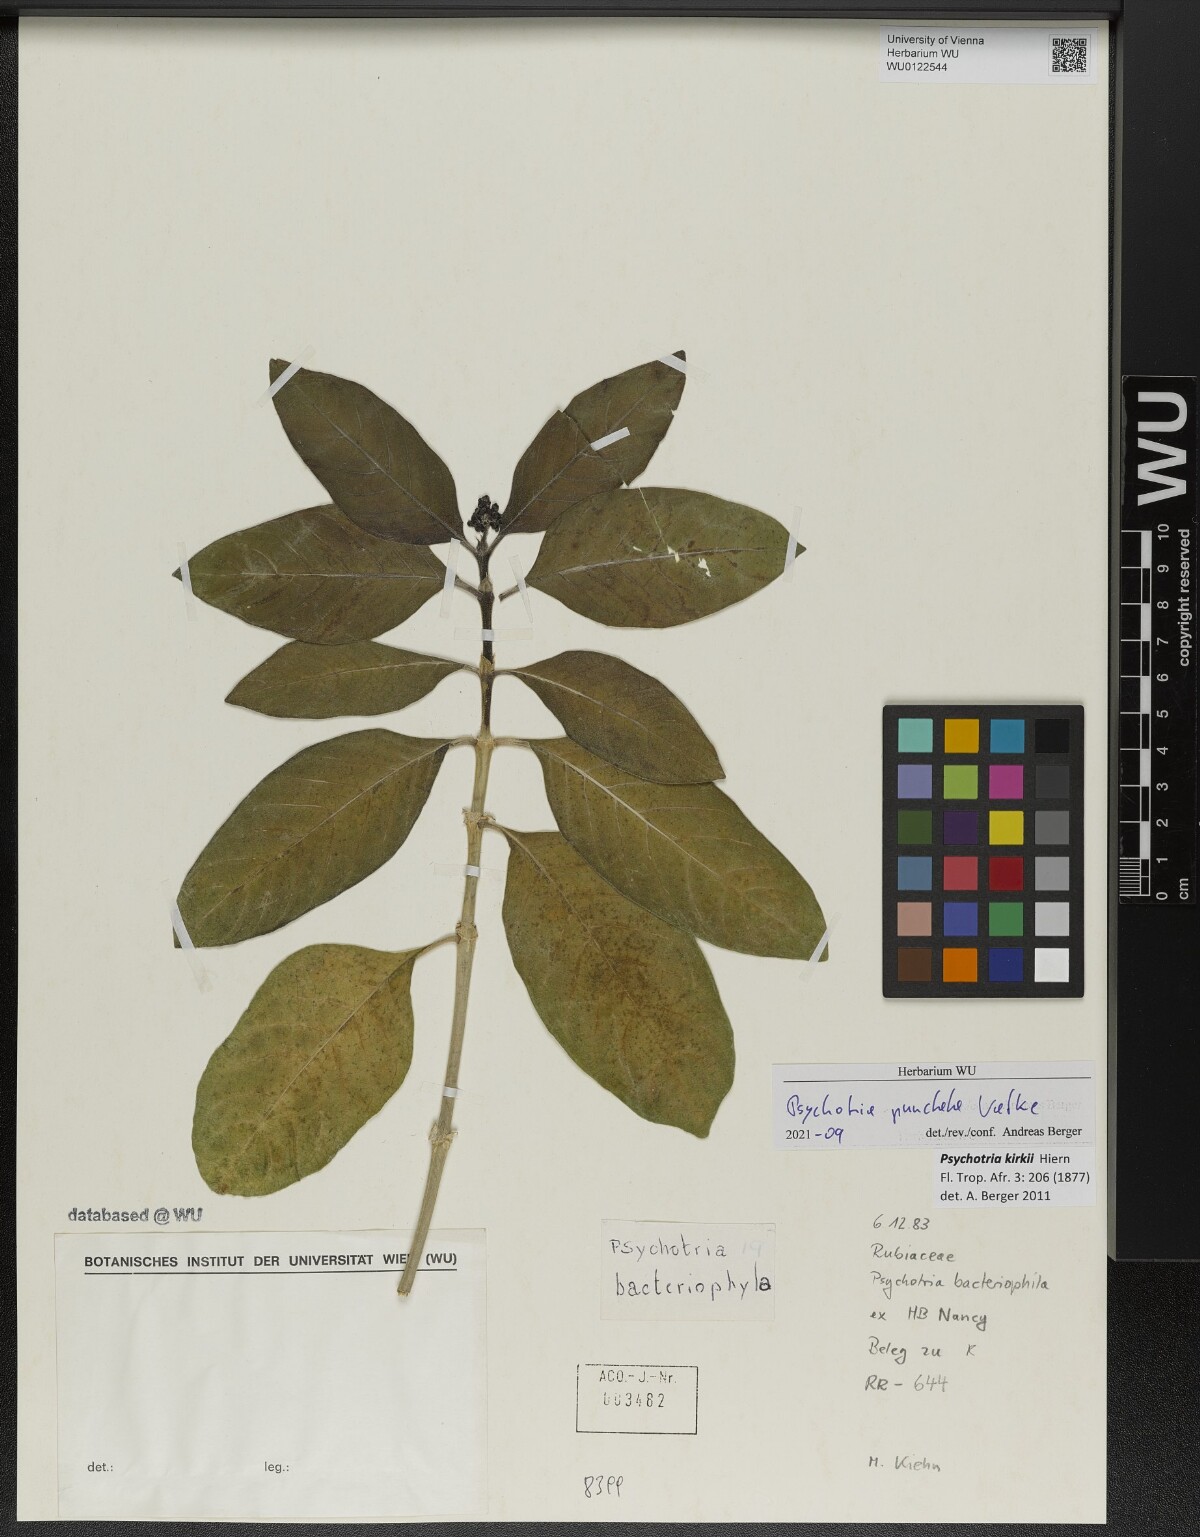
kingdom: Plantae
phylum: Tracheophyta
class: Magnoliopsida
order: Gentianales
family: Rubiaceae
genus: Psychotria
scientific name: Psychotria punctata
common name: Dotted wild coffee
